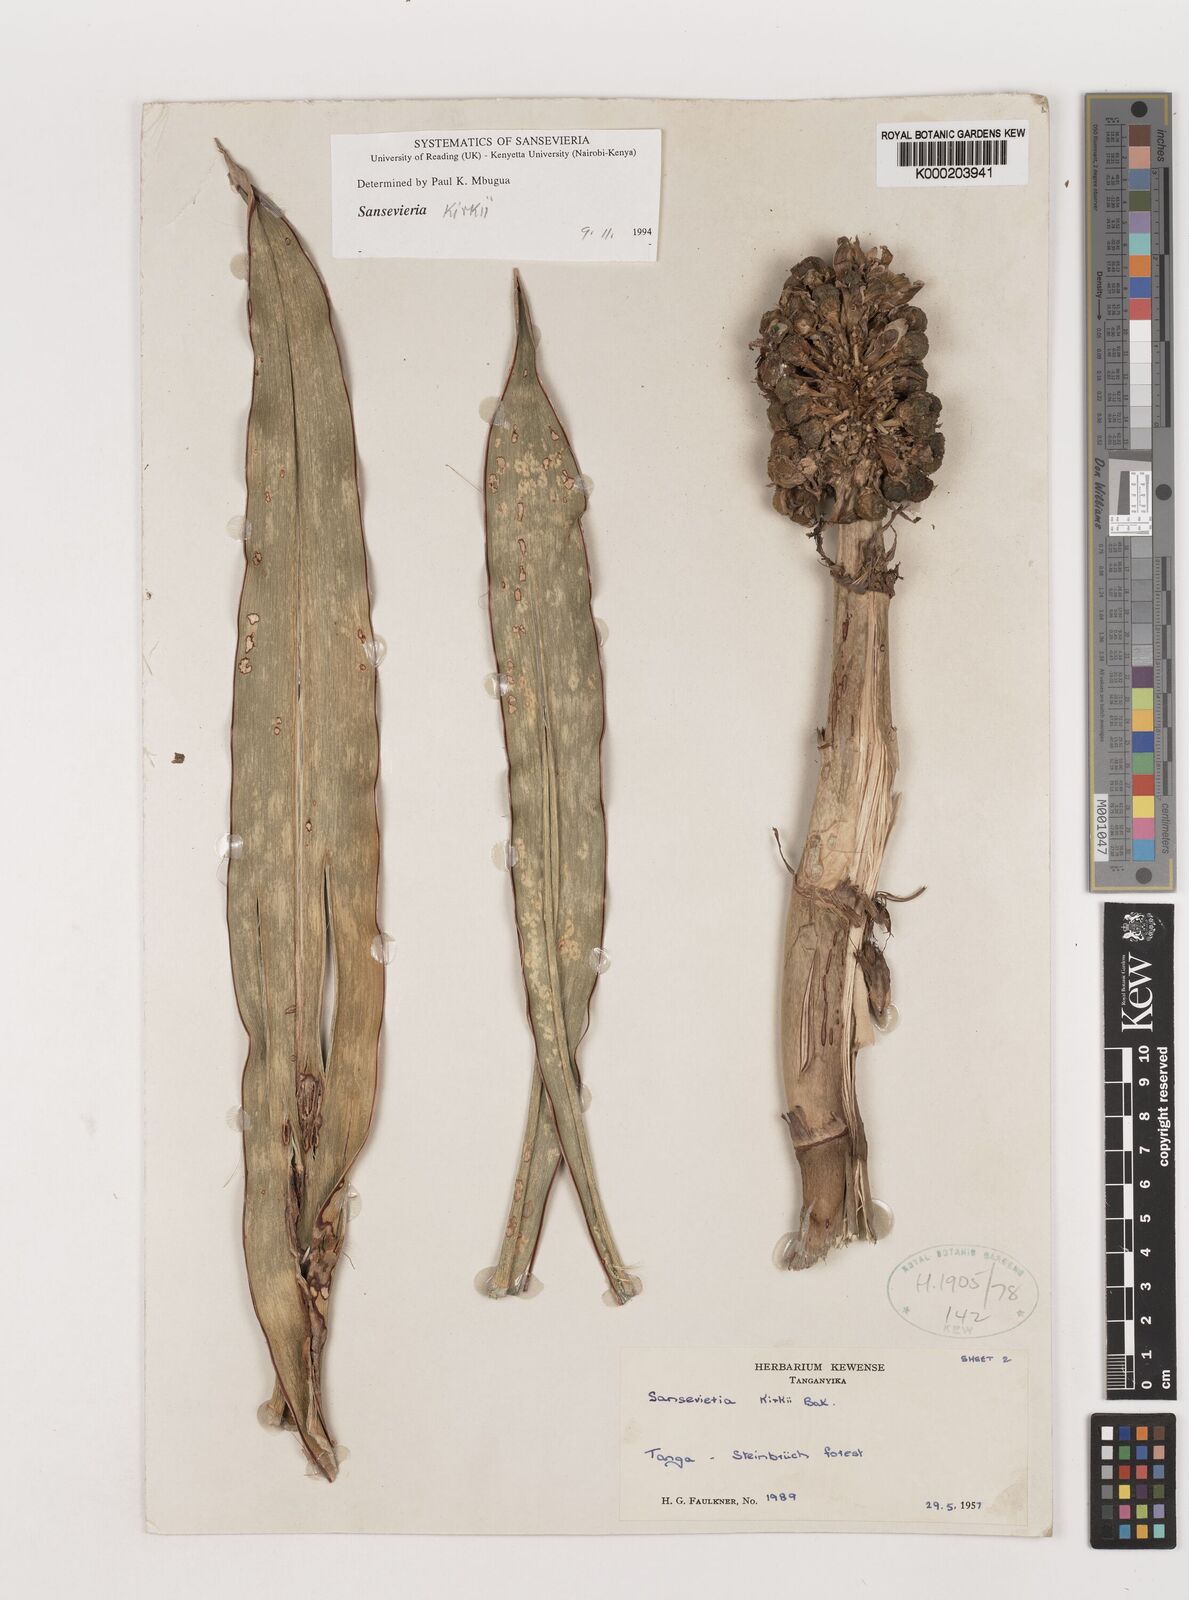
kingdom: Plantae
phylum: Tracheophyta
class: Liliopsida
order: Asparagales
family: Asparagaceae
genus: Dracaena
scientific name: Dracaena pethera
